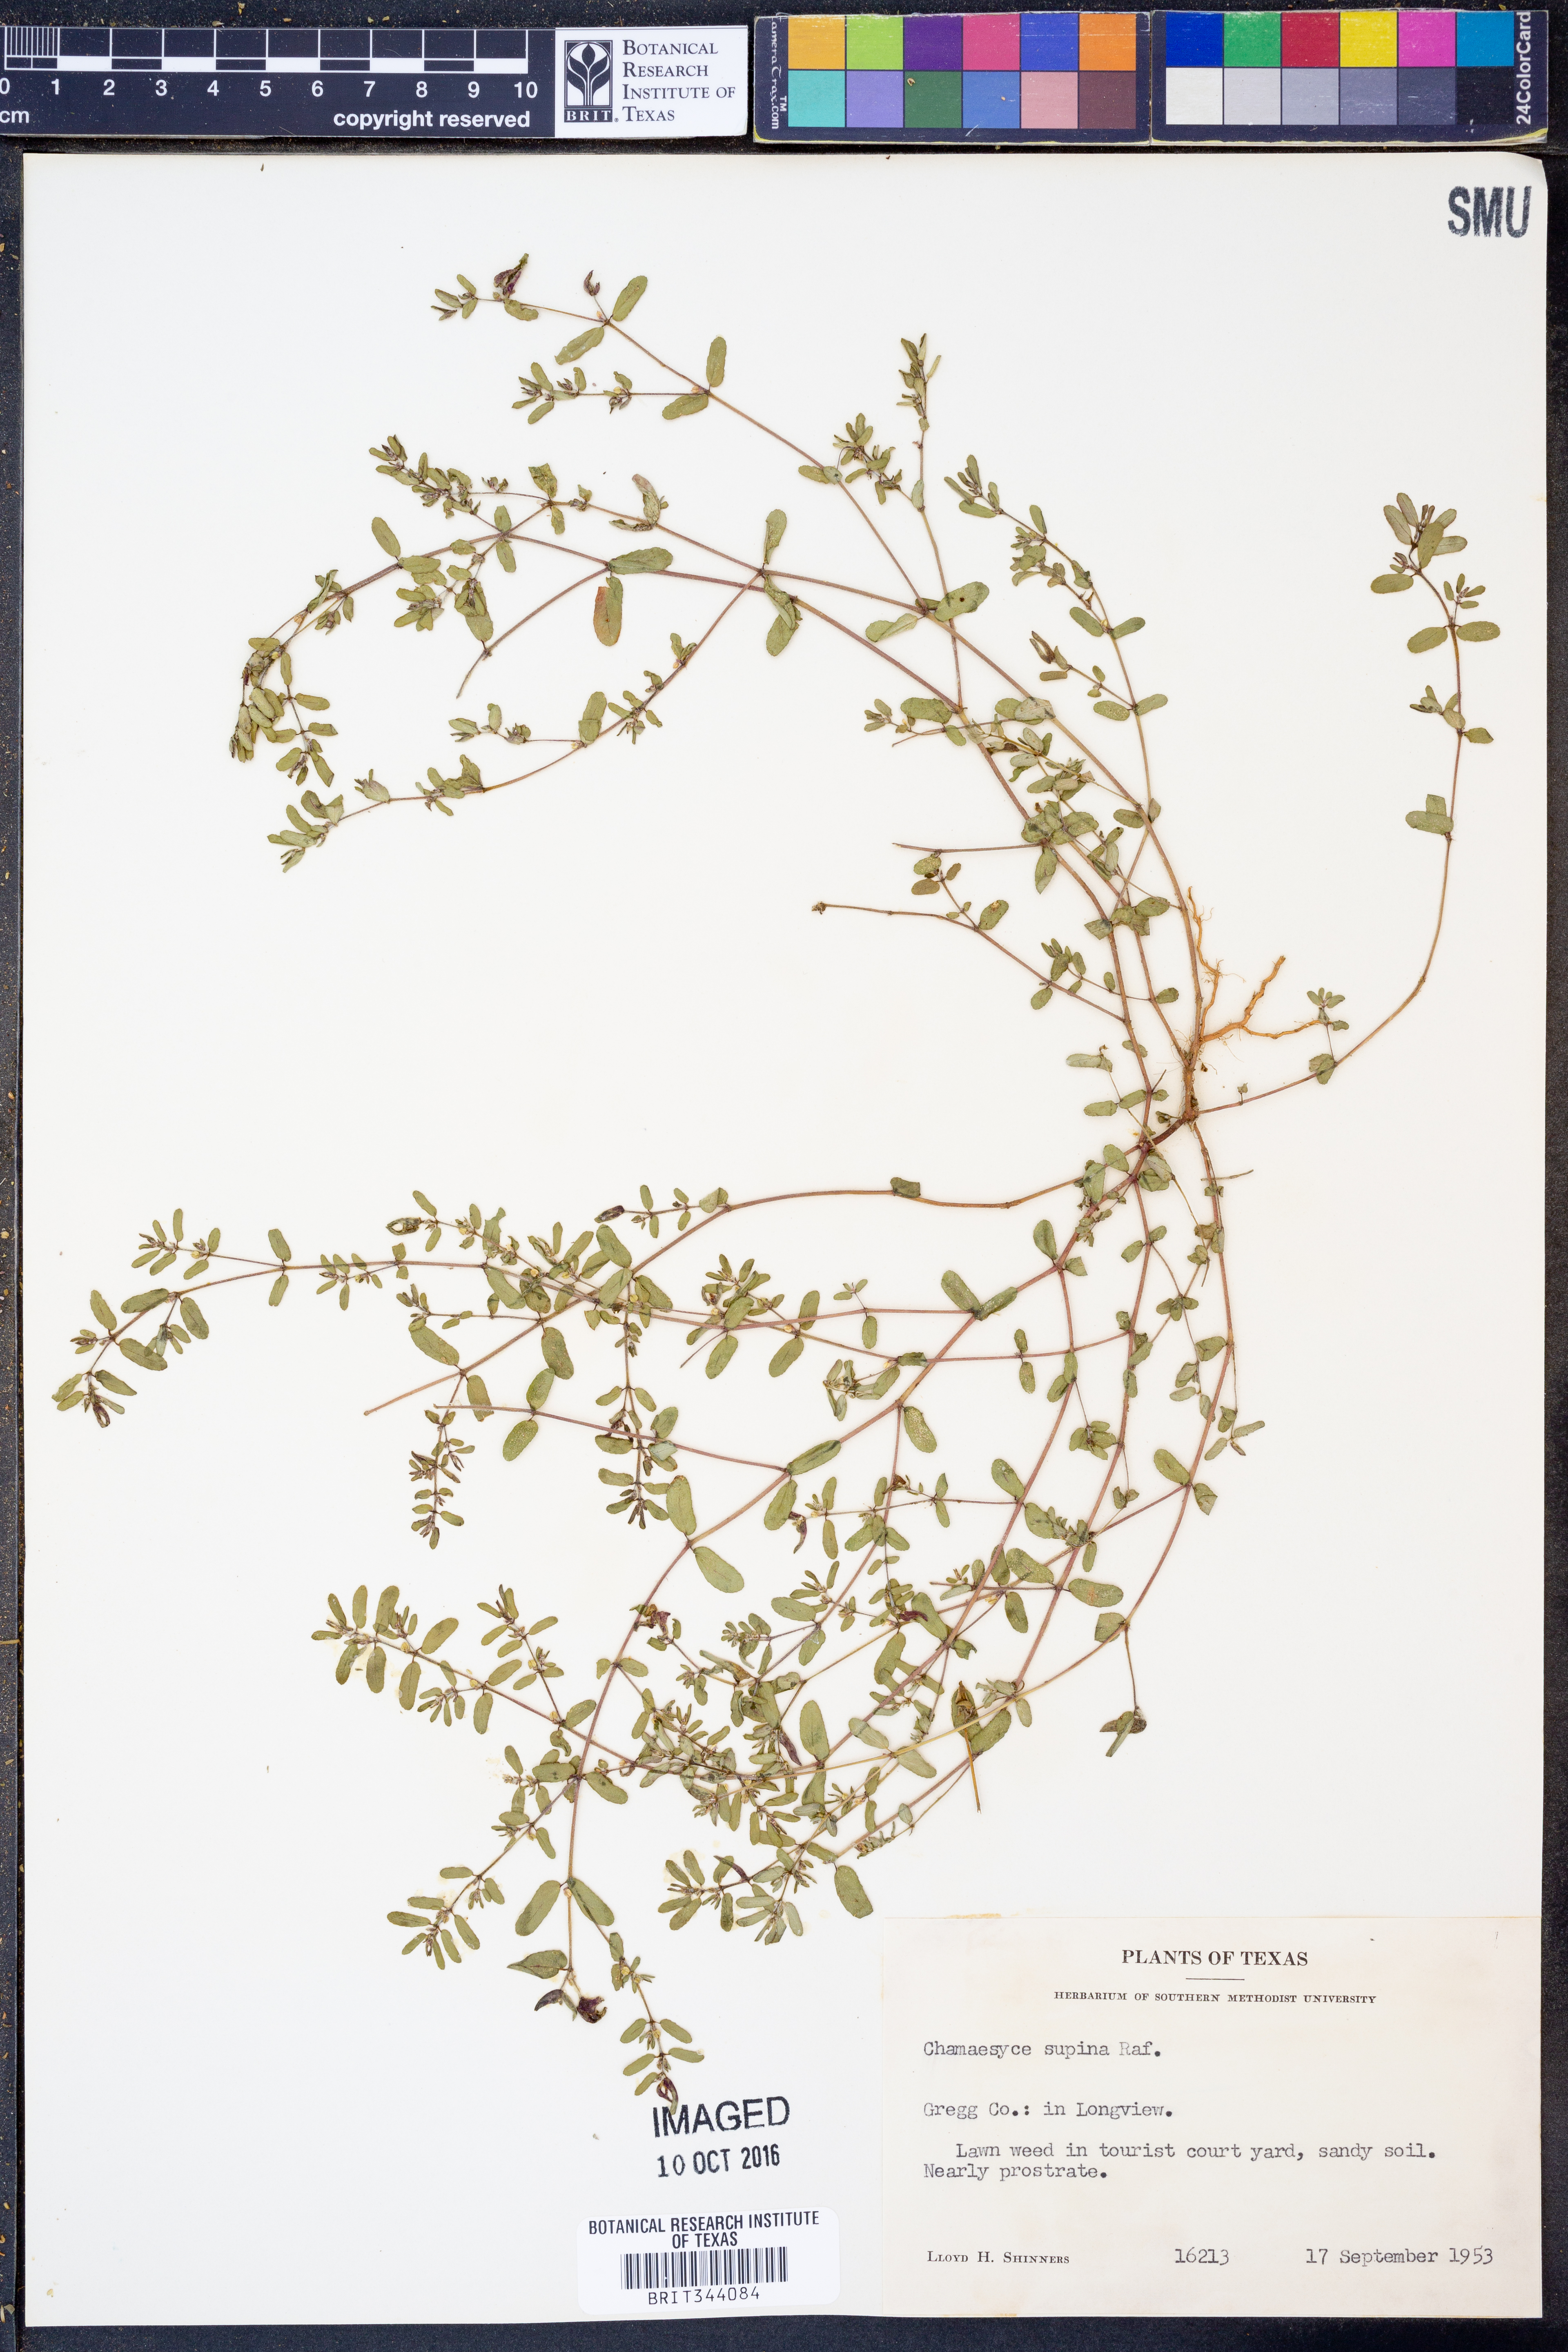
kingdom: Plantae
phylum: Tracheophyta
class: Magnoliopsida
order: Malpighiales
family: Euphorbiaceae
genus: Euphorbia
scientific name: Euphorbia maculata
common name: Spotted spurge
